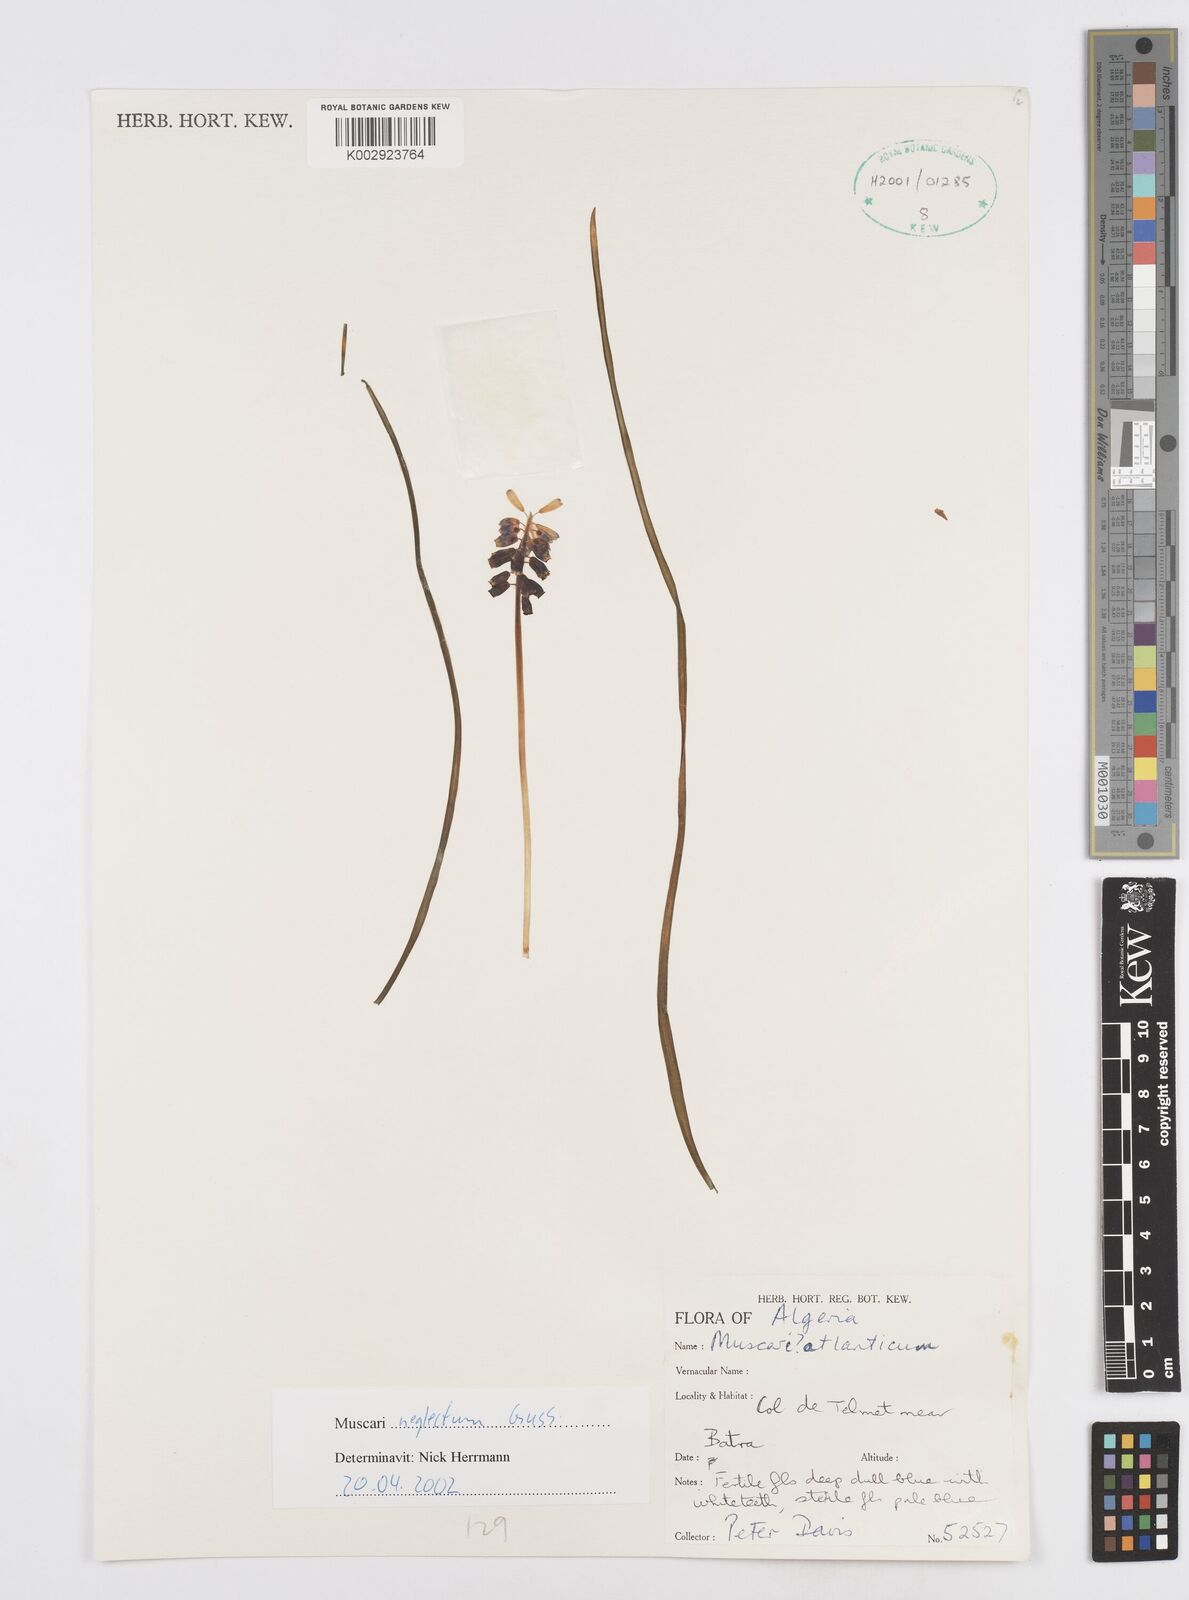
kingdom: Plantae
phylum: Tracheophyta
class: Liliopsida
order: Asparagales
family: Asparagaceae
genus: Muscari
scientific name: Muscari neglectum
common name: Grape-hyacinth
